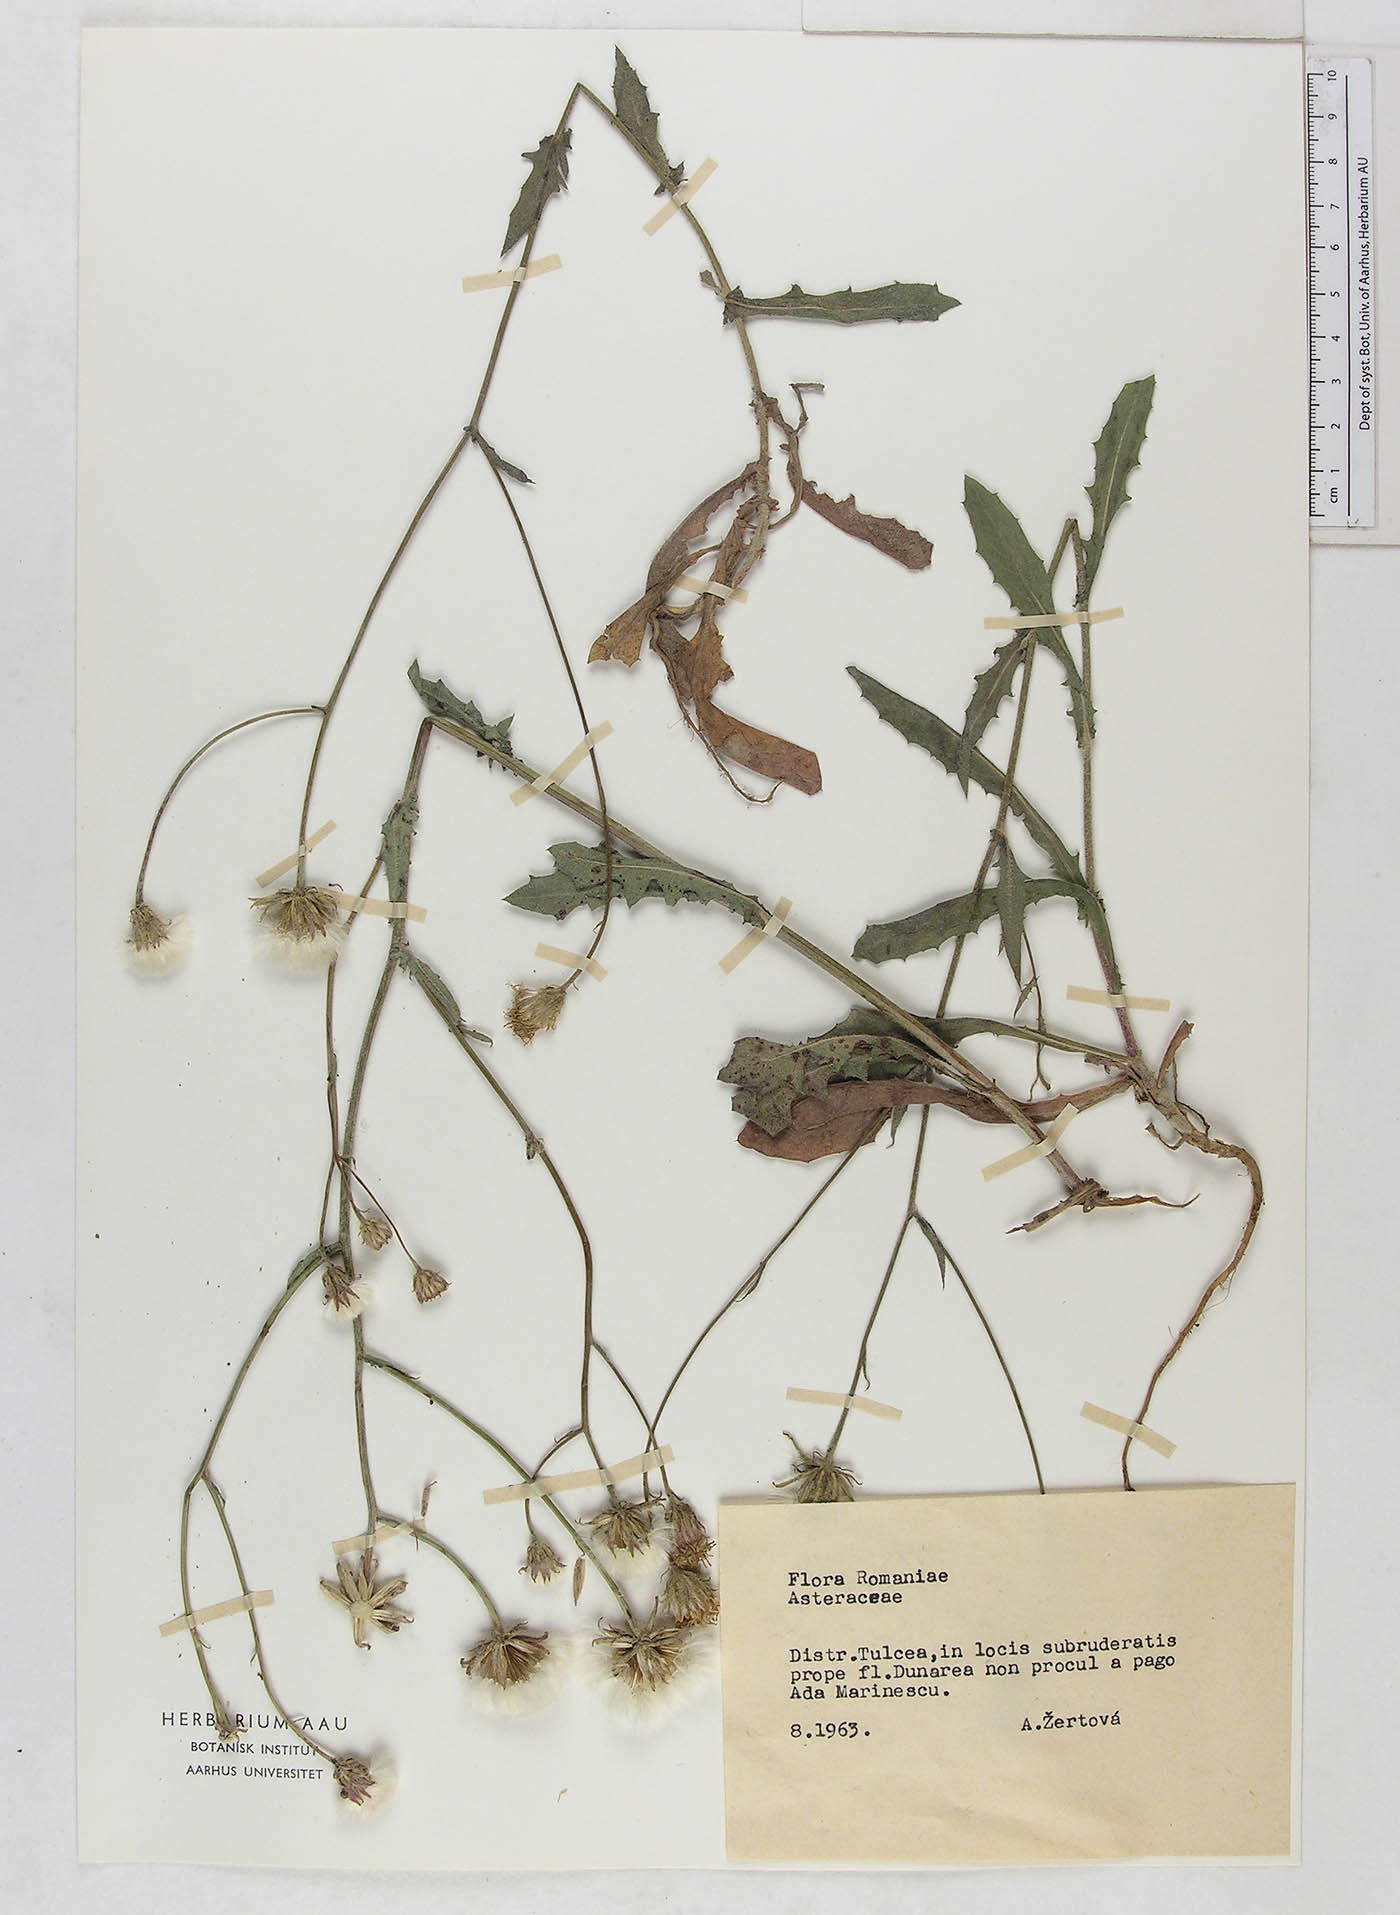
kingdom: Plantae
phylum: Tracheophyta
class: Magnoliopsida
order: Asterales
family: Asteraceae
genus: Crepis
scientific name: Crepis
